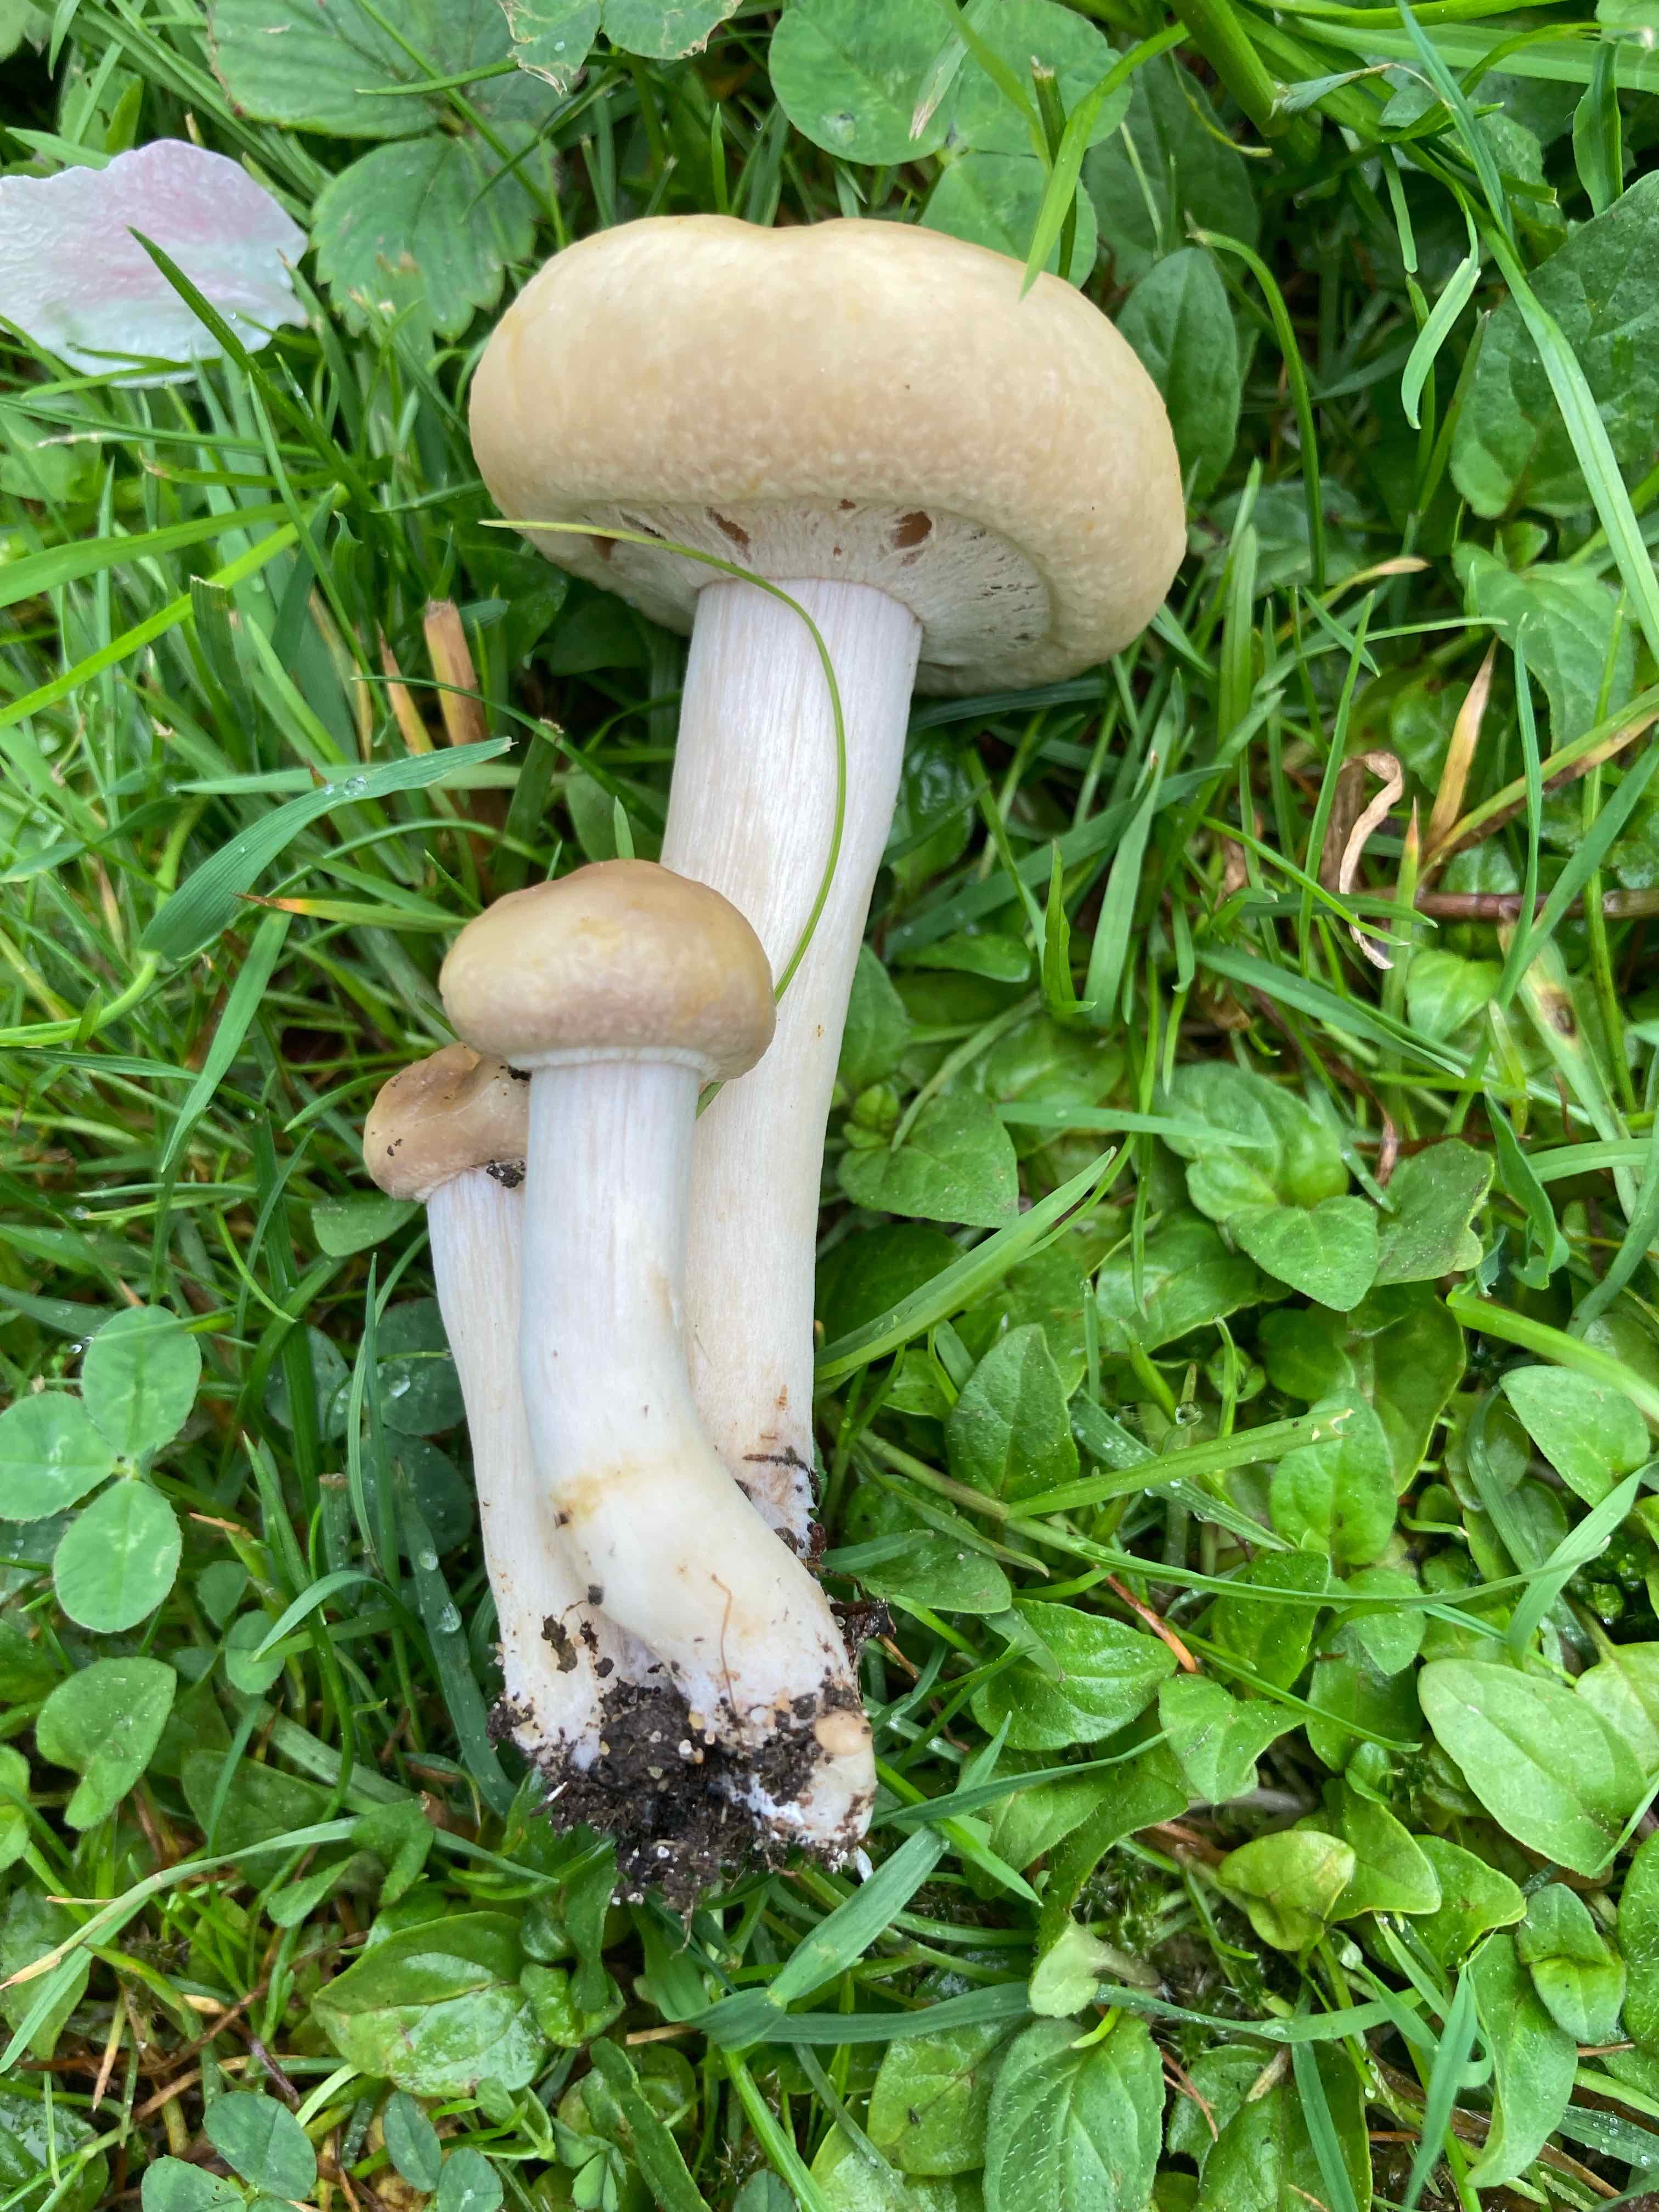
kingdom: Fungi
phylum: Basidiomycota
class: Agaricomycetes
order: Agaricales
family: Strophariaceae
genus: Agrocybe
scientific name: Agrocybe praecox
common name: tidlig agerhat
